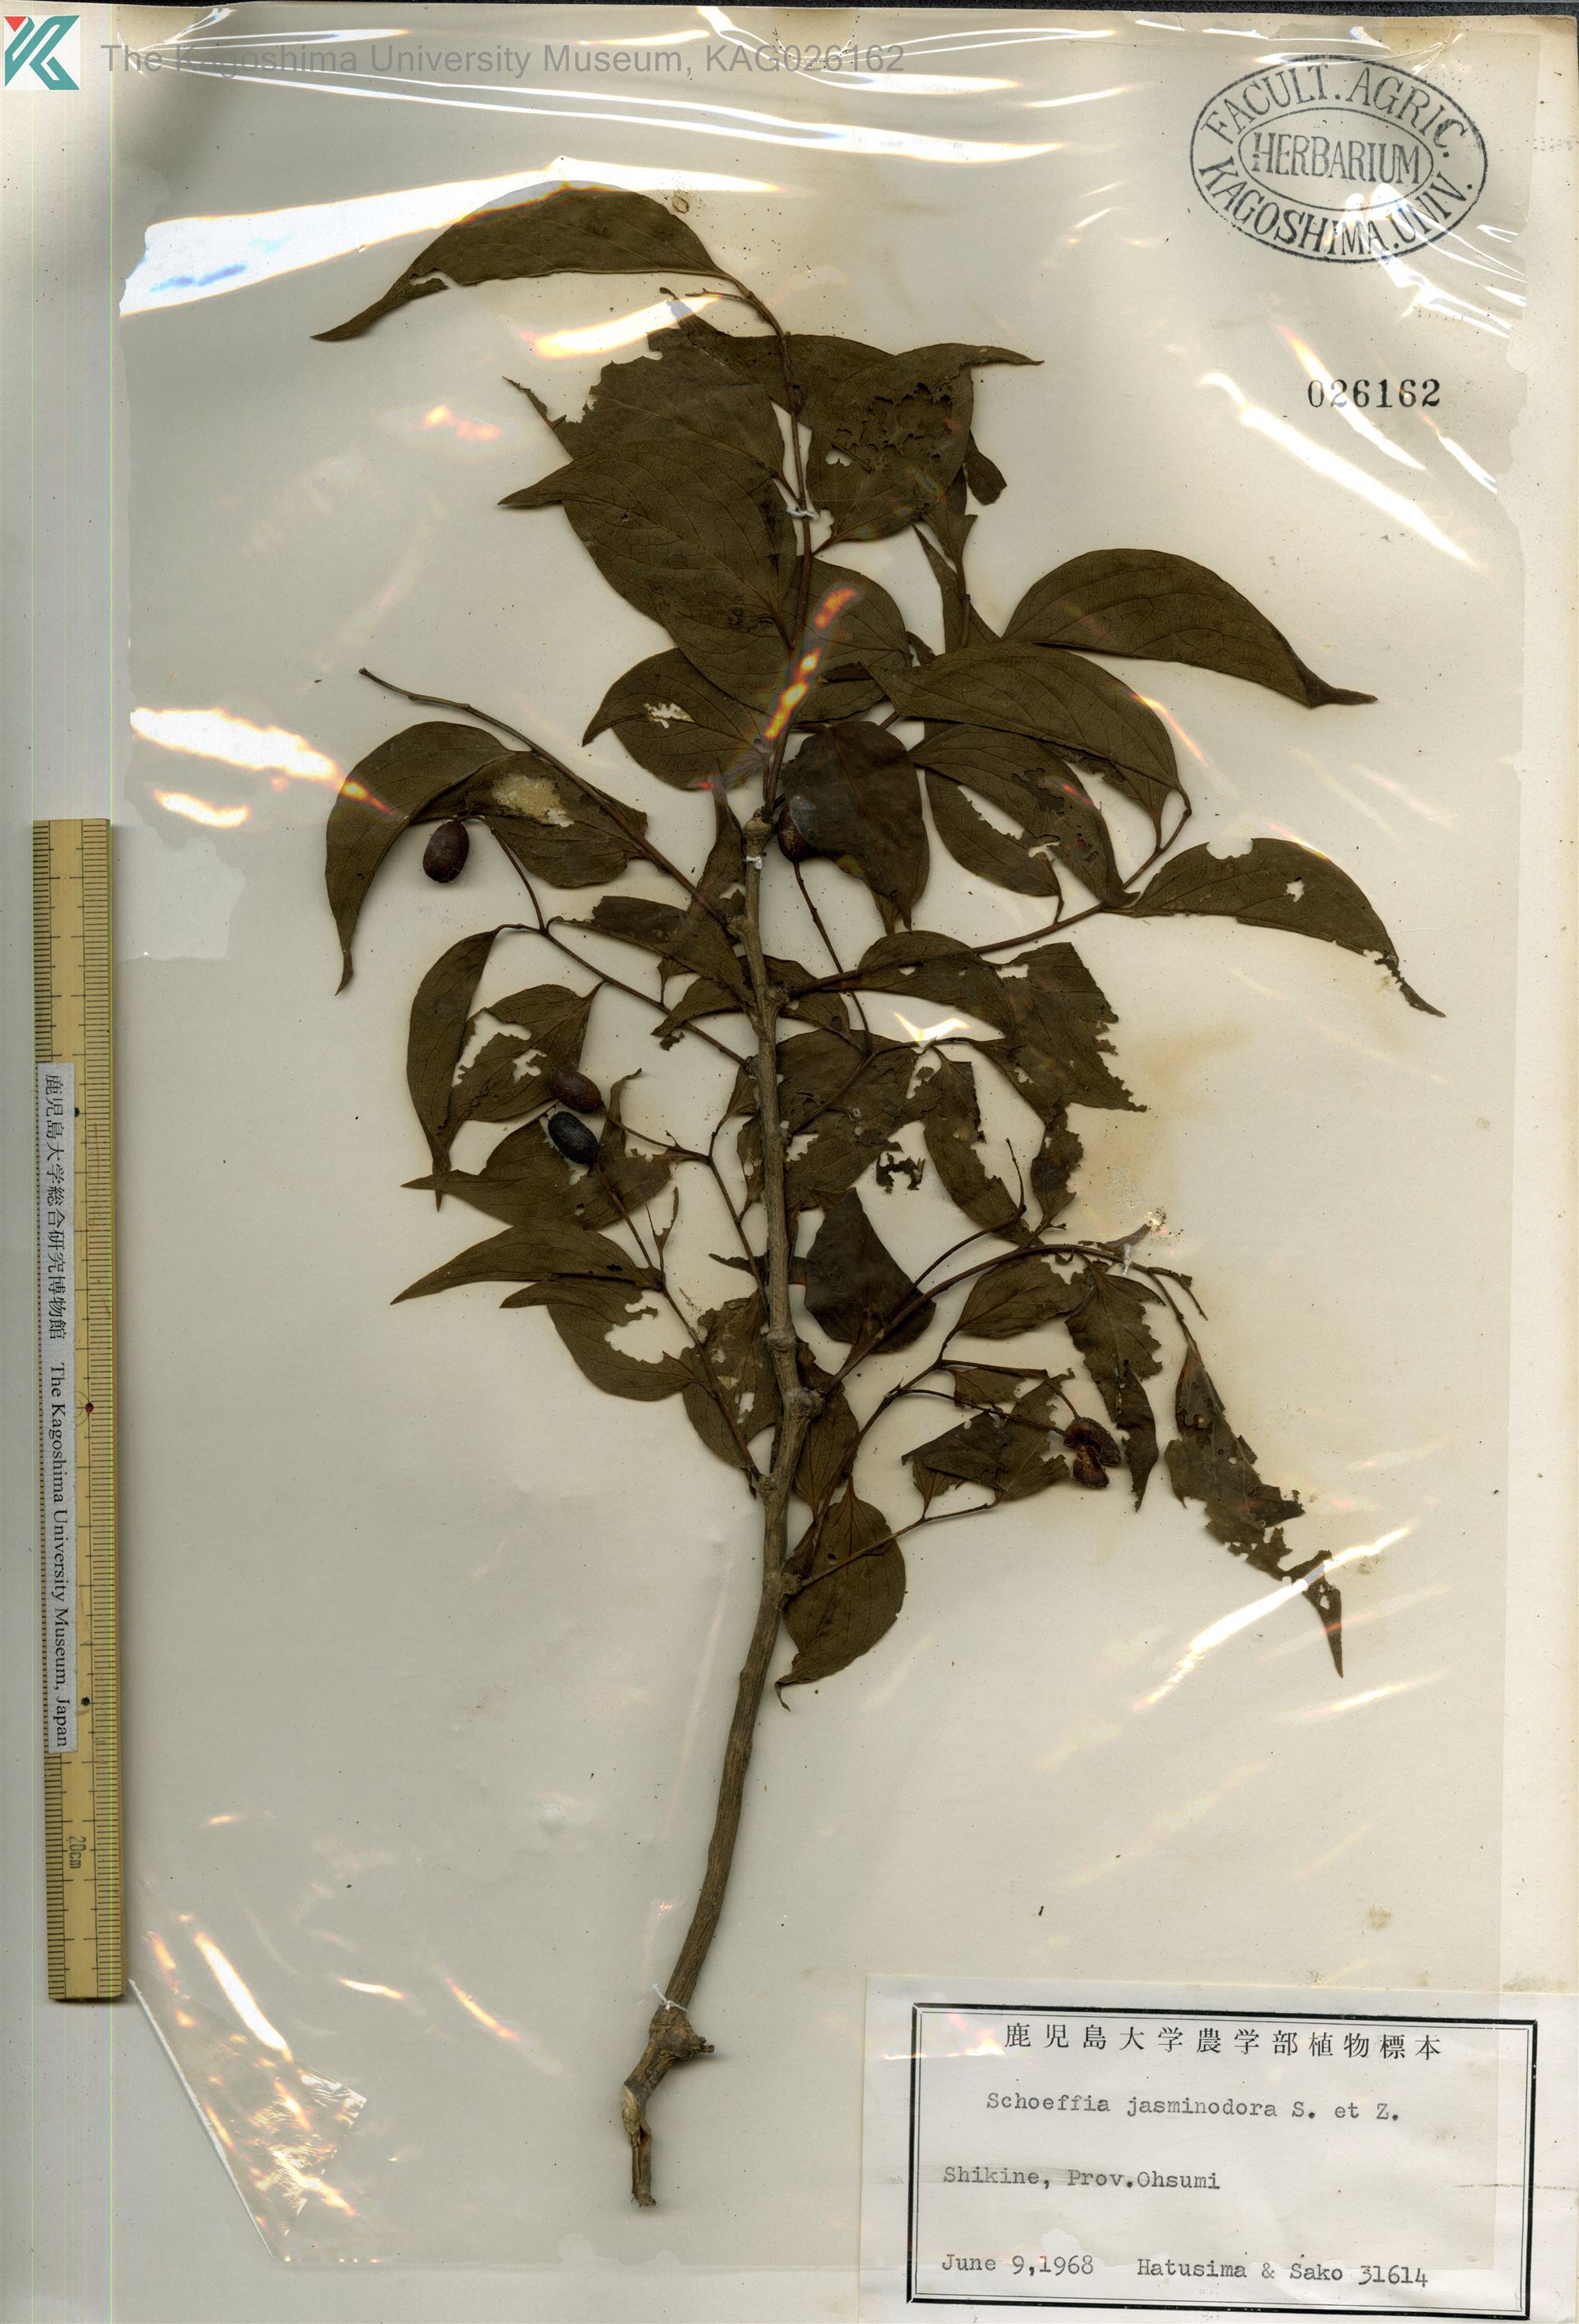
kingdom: Plantae
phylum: Tracheophyta
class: Magnoliopsida
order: Santalales
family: Schoepfiaceae
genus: Schoepfia
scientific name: Schoepfia jasminodora
